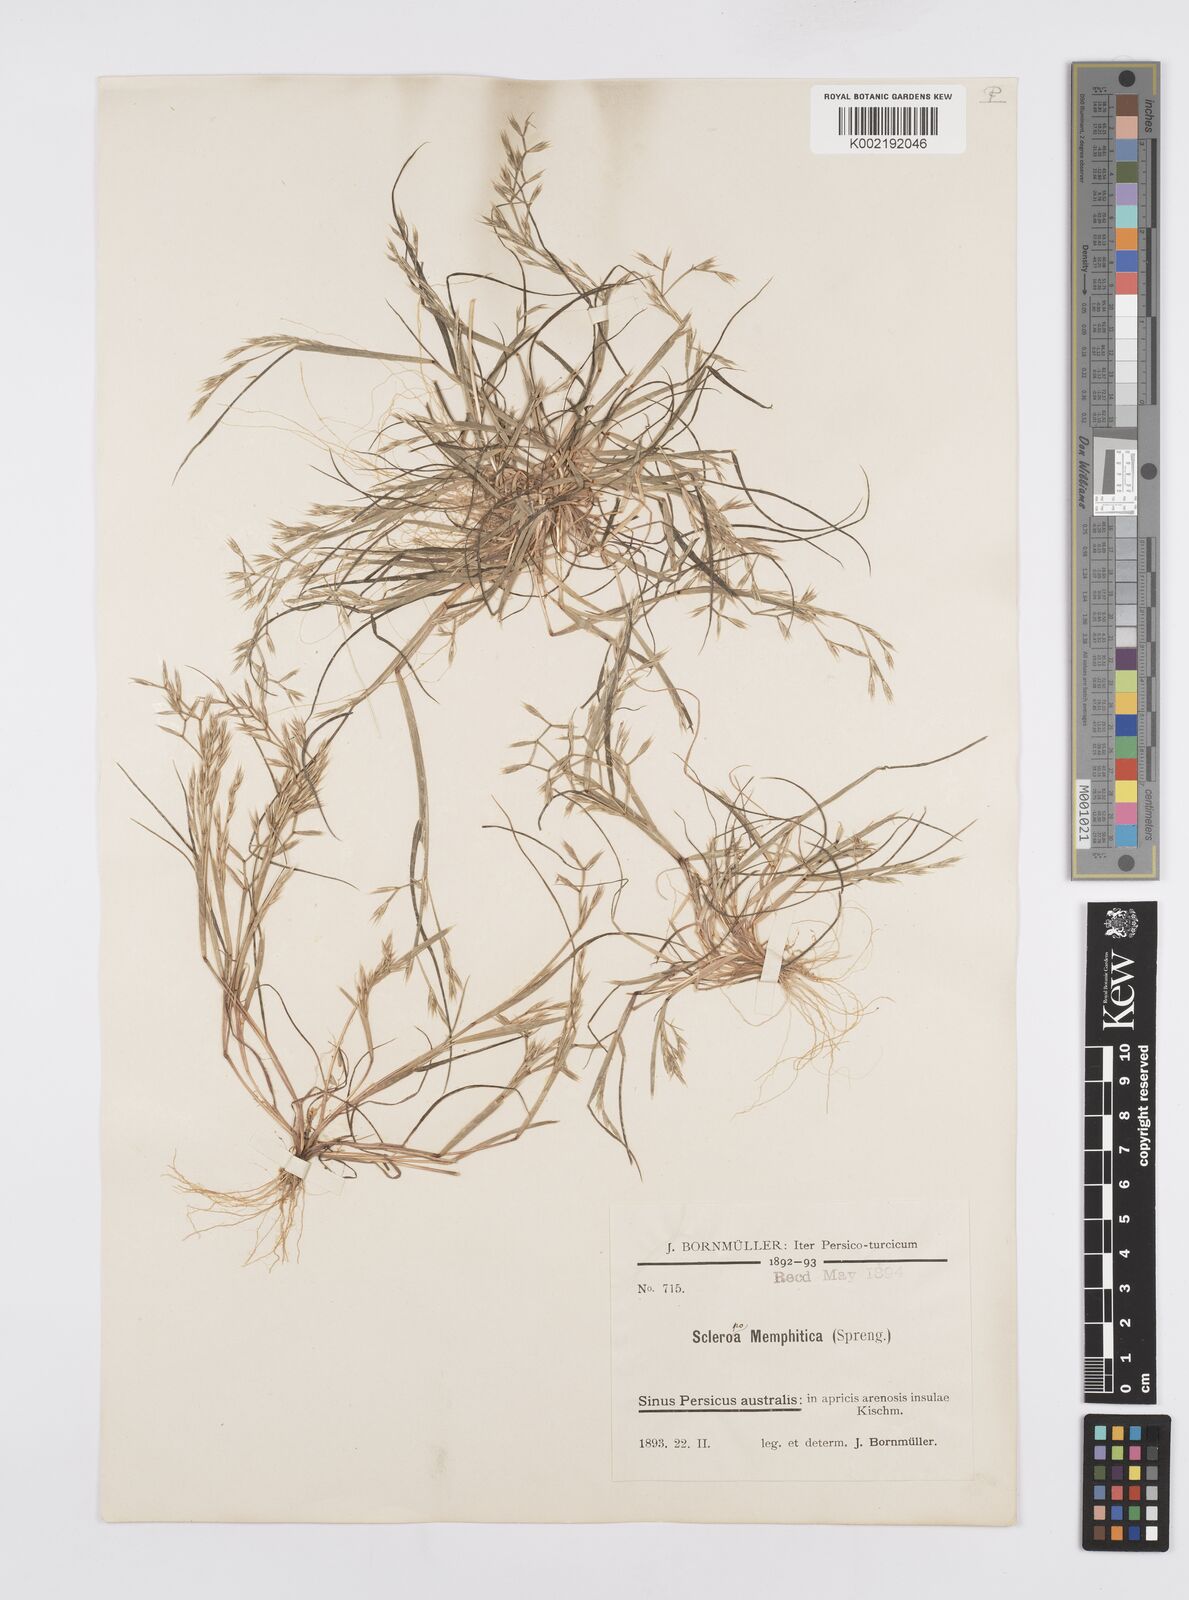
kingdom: Plantae
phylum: Tracheophyta
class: Liliopsida
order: Poales
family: Poaceae
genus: Cutandia
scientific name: Cutandia memphitica
